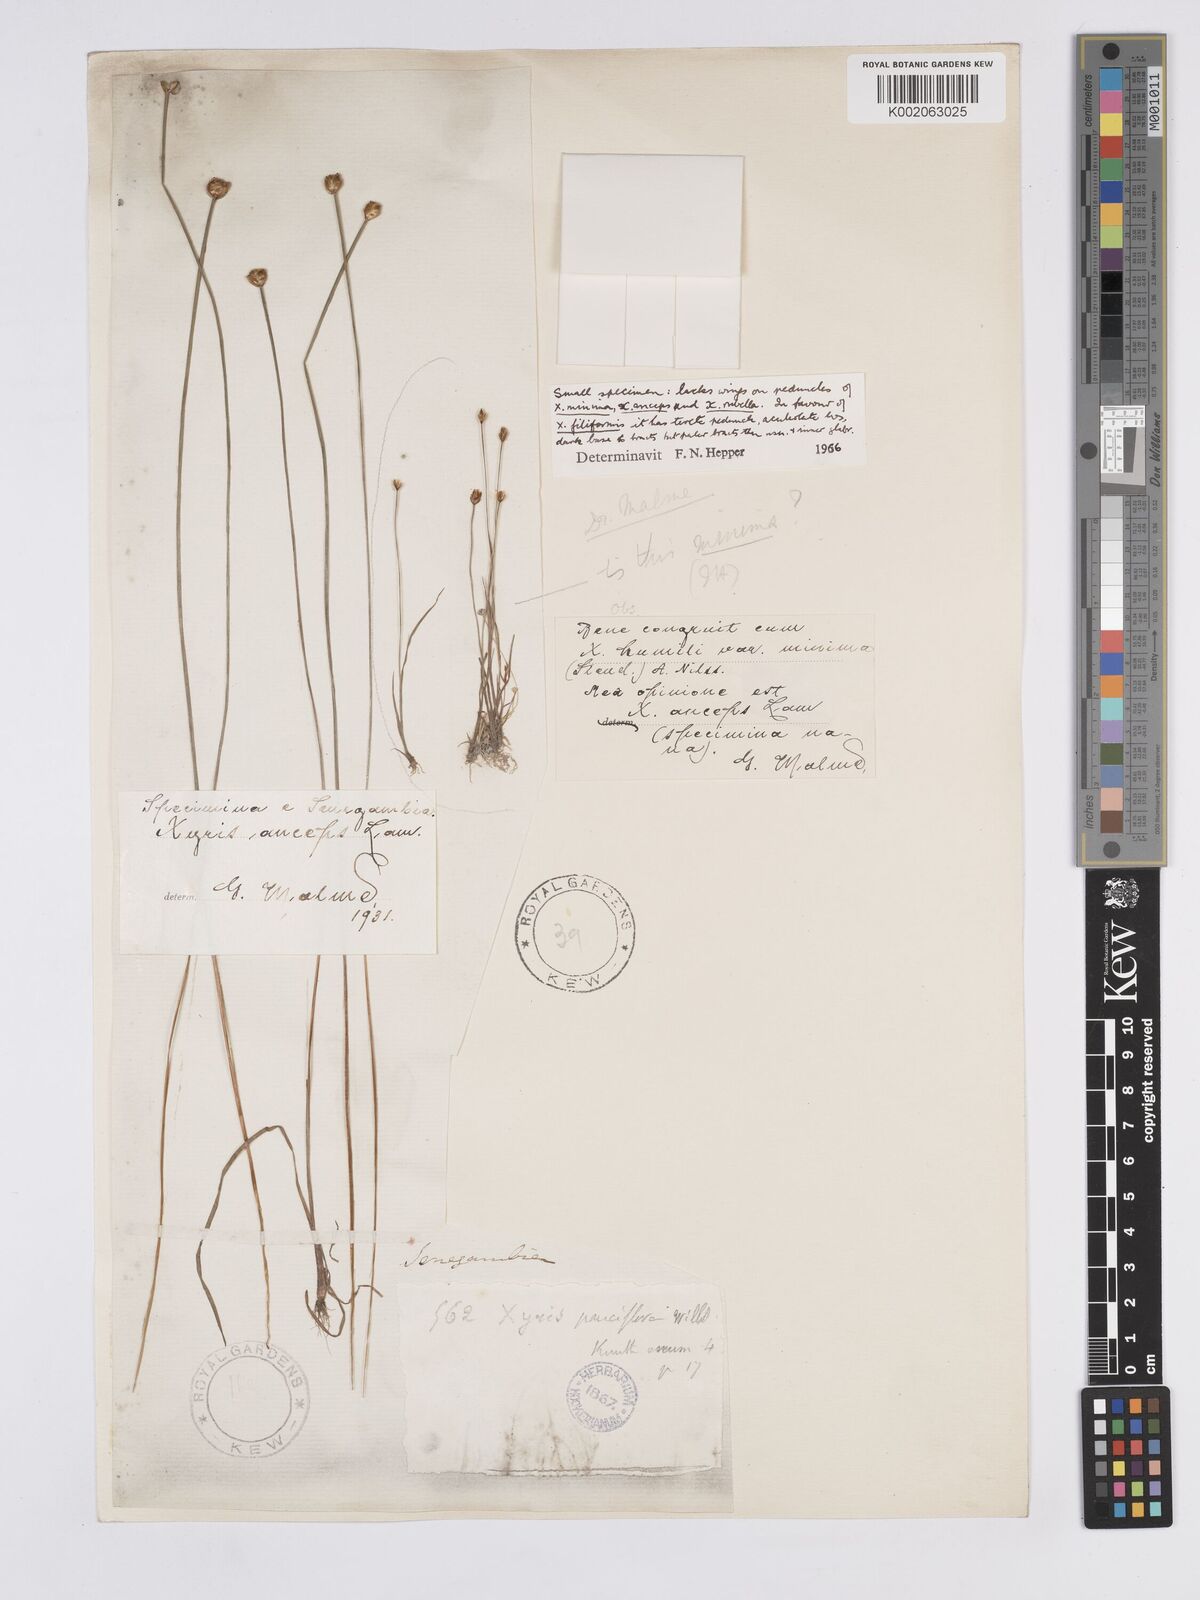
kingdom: Plantae
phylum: Tracheophyta
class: Liliopsida
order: Poales
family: Xyridaceae
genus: Xyris
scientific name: Xyris anceps
